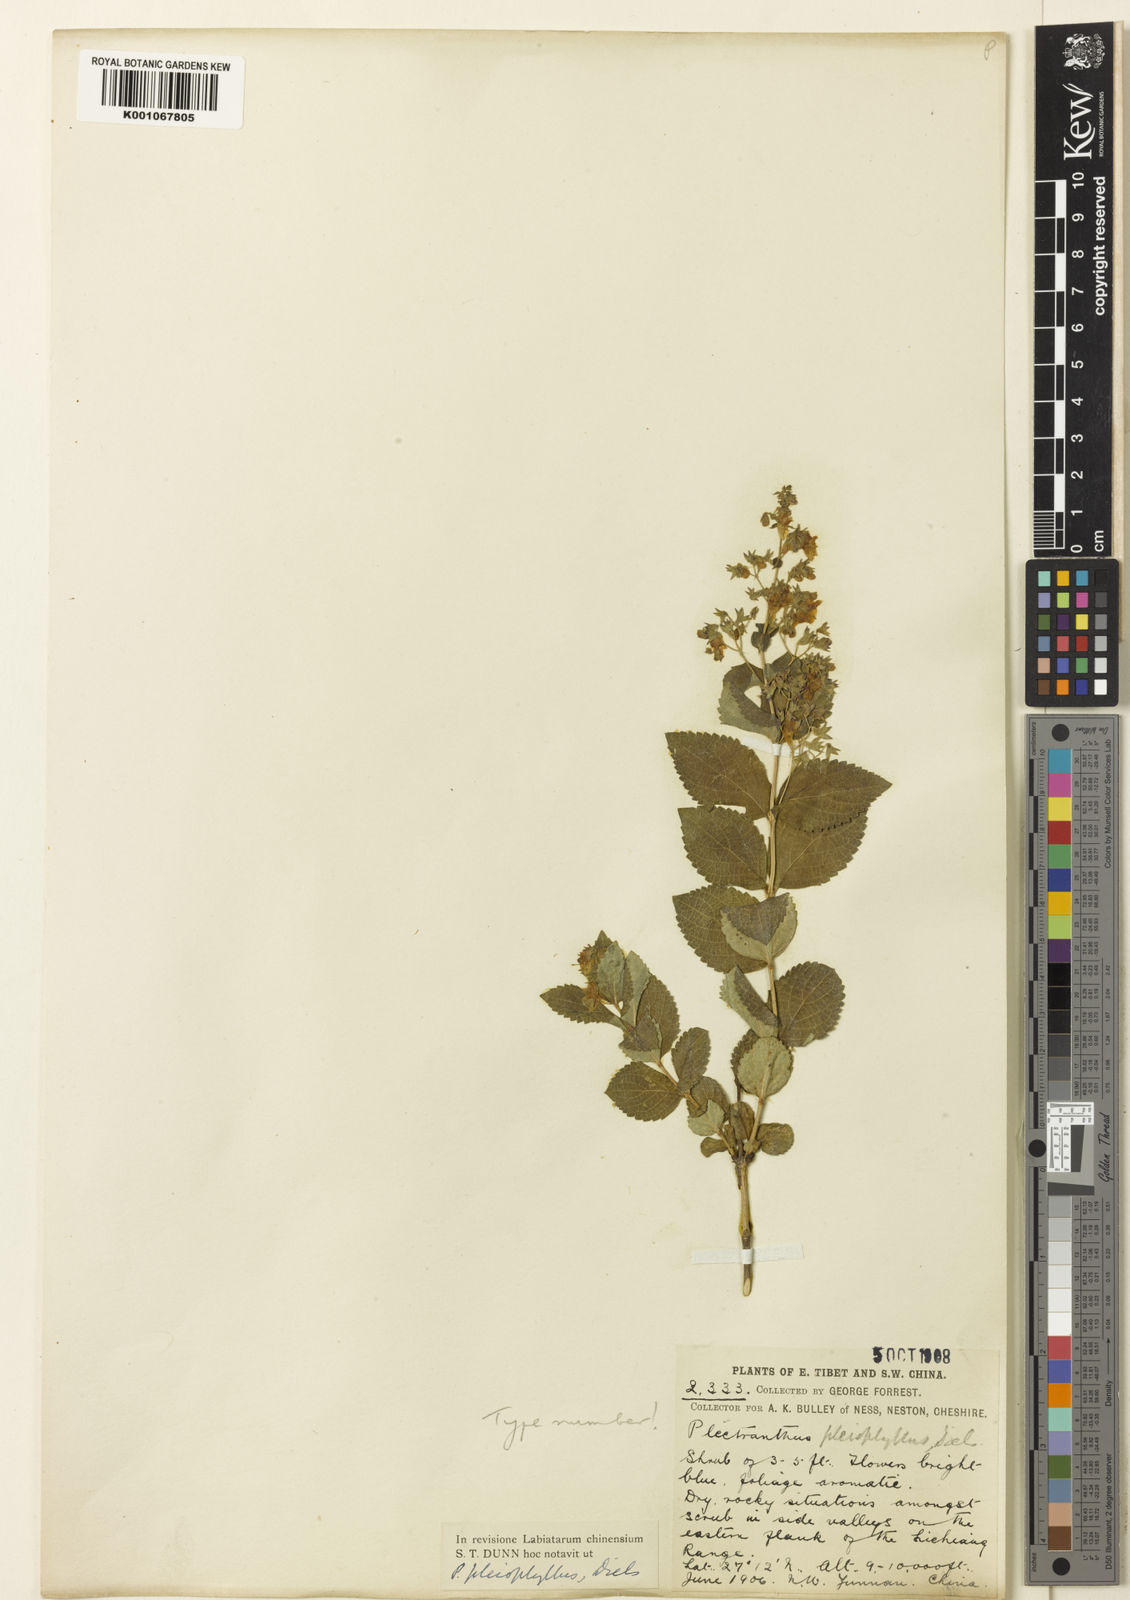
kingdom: Plantae
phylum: Tracheophyta
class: Magnoliopsida
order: Lamiales
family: Lamiaceae
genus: Isodon
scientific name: Isodon
